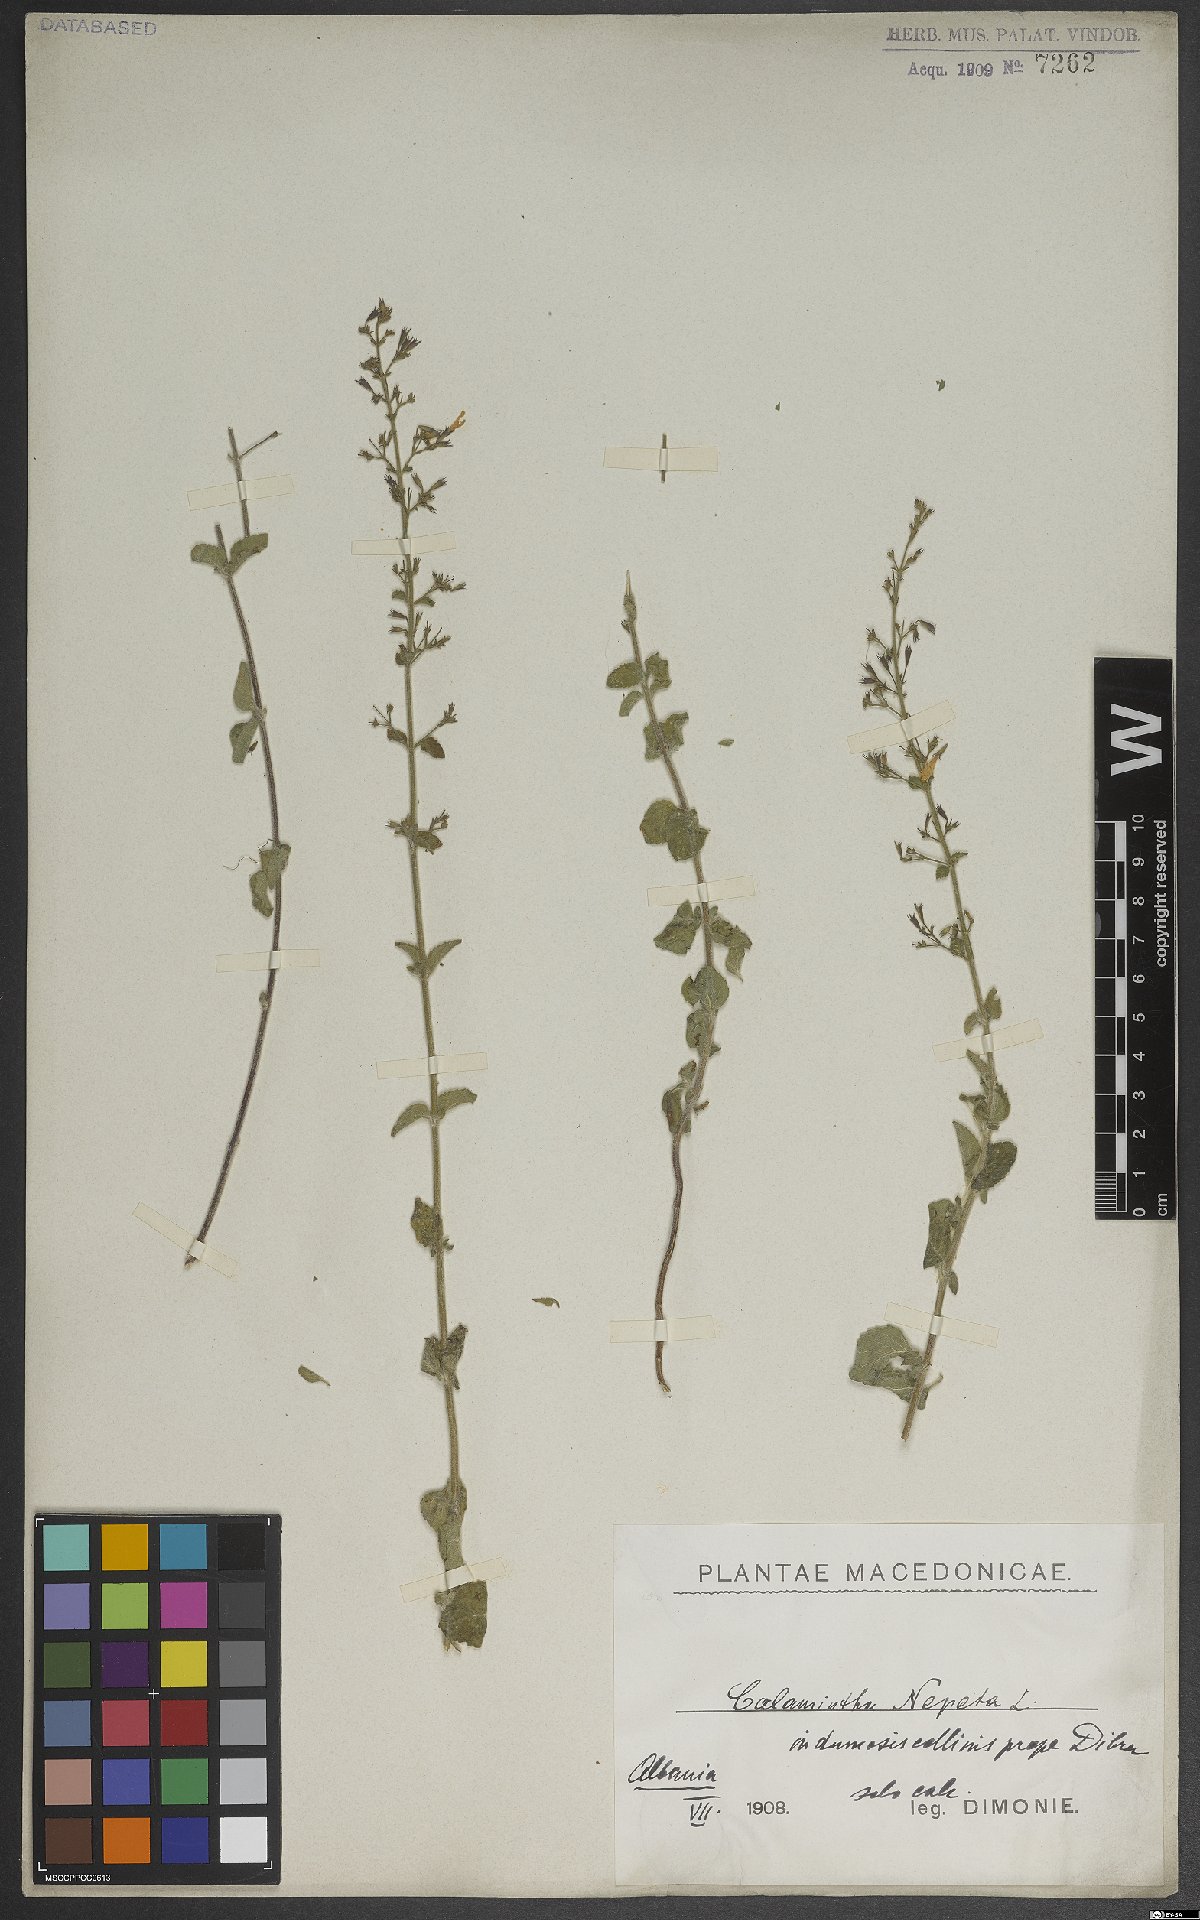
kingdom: Plantae
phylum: Tracheophyta
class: Magnoliopsida
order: Lamiales
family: Lamiaceae
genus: Clinopodium
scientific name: Clinopodium nepeta
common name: Lesser calamint
